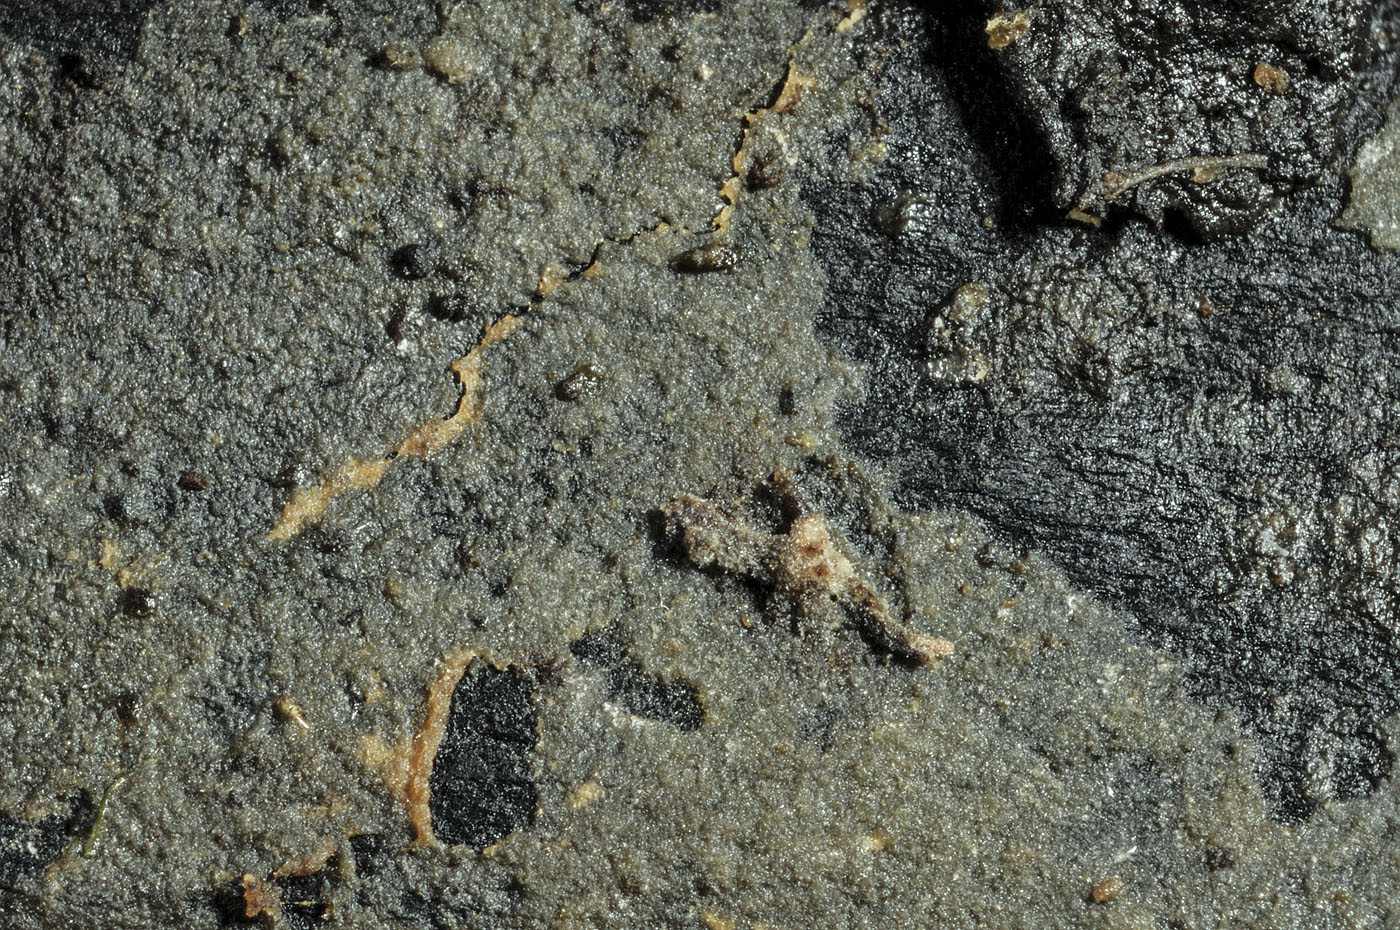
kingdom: Fungi
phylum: Basidiomycota
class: Atractiellomycetes
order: Atractiellales
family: Phleogenaceae
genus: Bourdotigloea
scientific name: Bourdotigloea vestita
